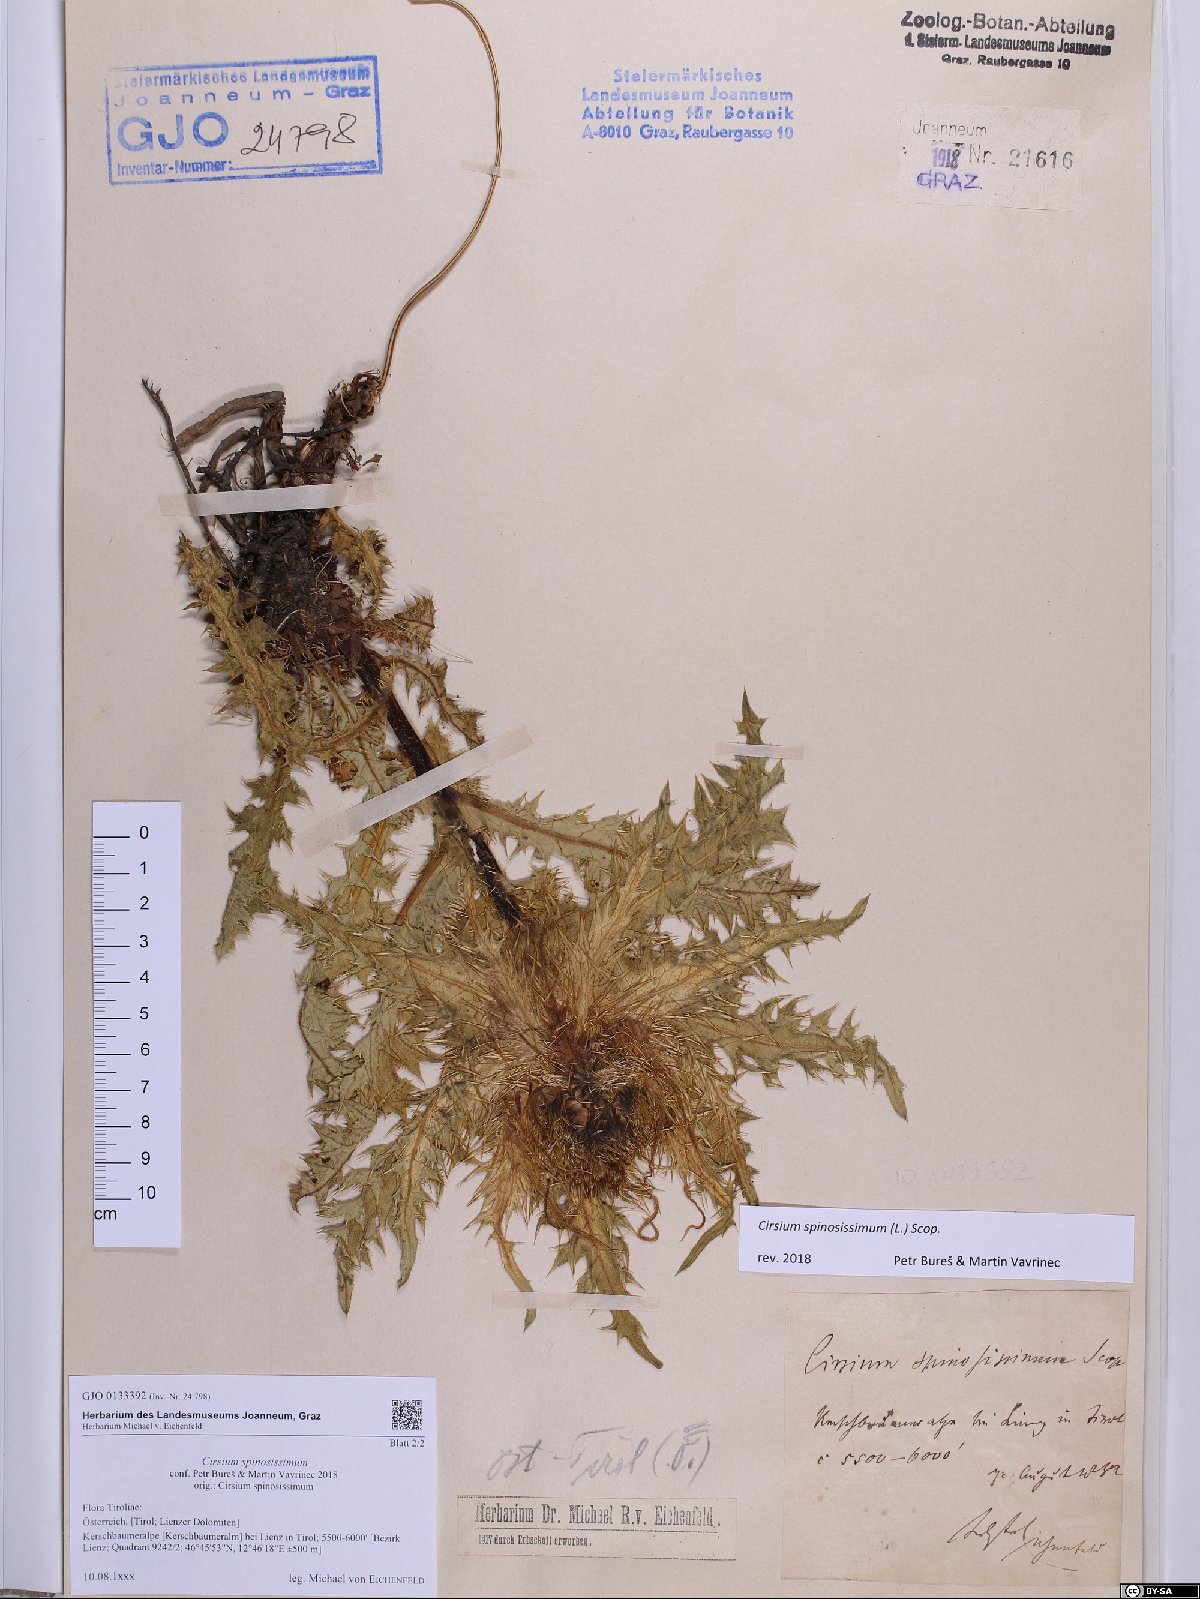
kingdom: Plantae
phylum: Tracheophyta
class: Magnoliopsida
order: Asterales
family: Asteraceae
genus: Cirsium
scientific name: Cirsium spinosissimum
